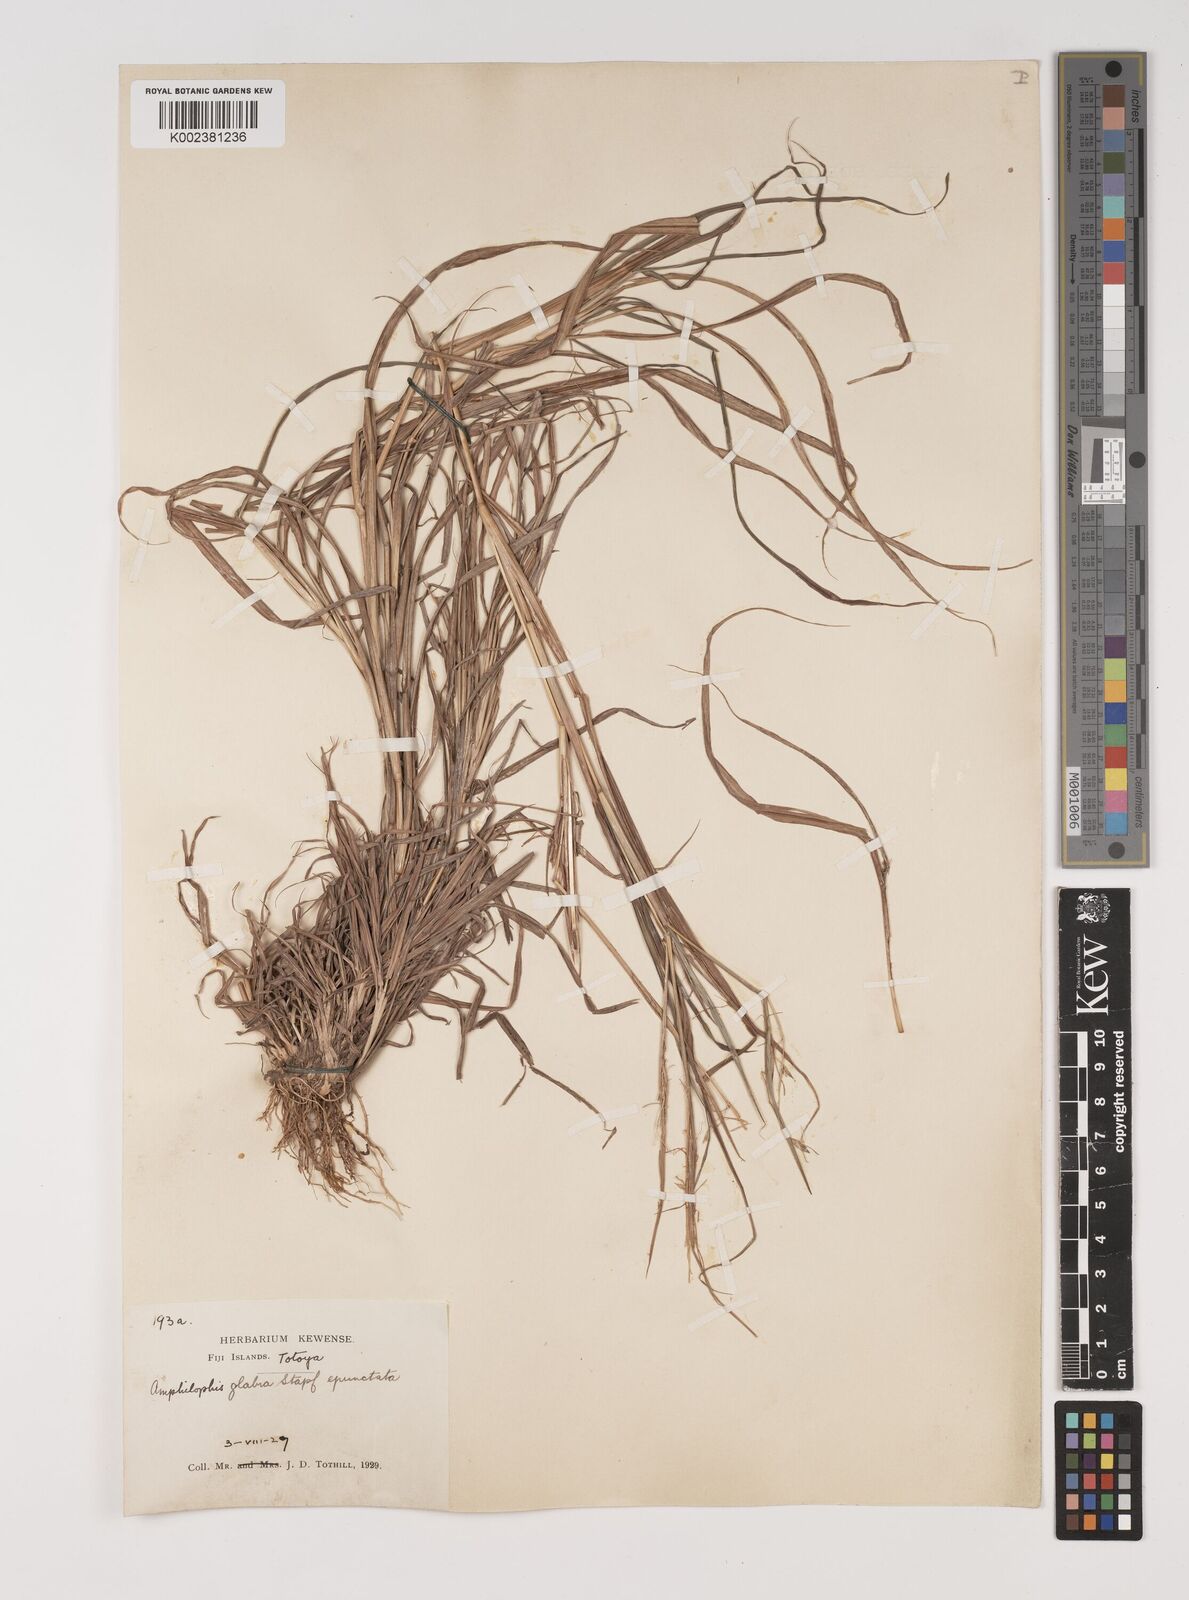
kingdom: Plantae
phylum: Tracheophyta
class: Liliopsida
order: Poales
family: Poaceae
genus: Bothriochloa
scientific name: Bothriochloa bladhii
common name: Caucasian bluestem
